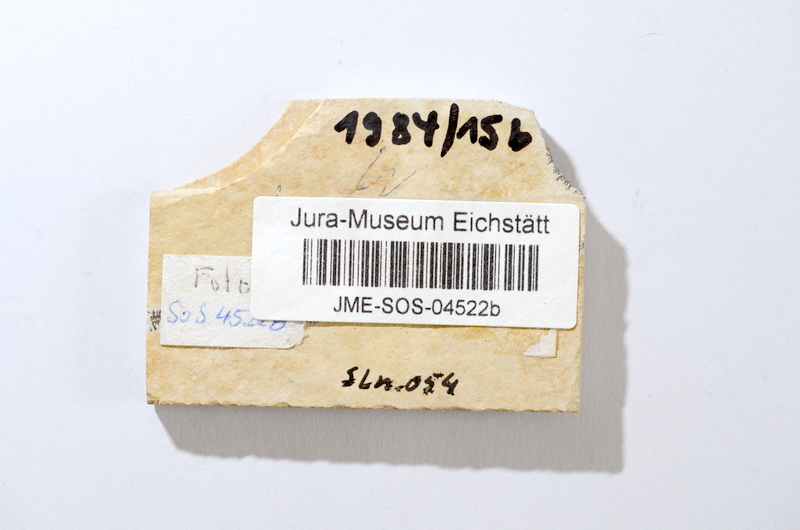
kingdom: Animalia
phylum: Chordata
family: Allothrissopidae
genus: Allothrissops
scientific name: Allothrissops
